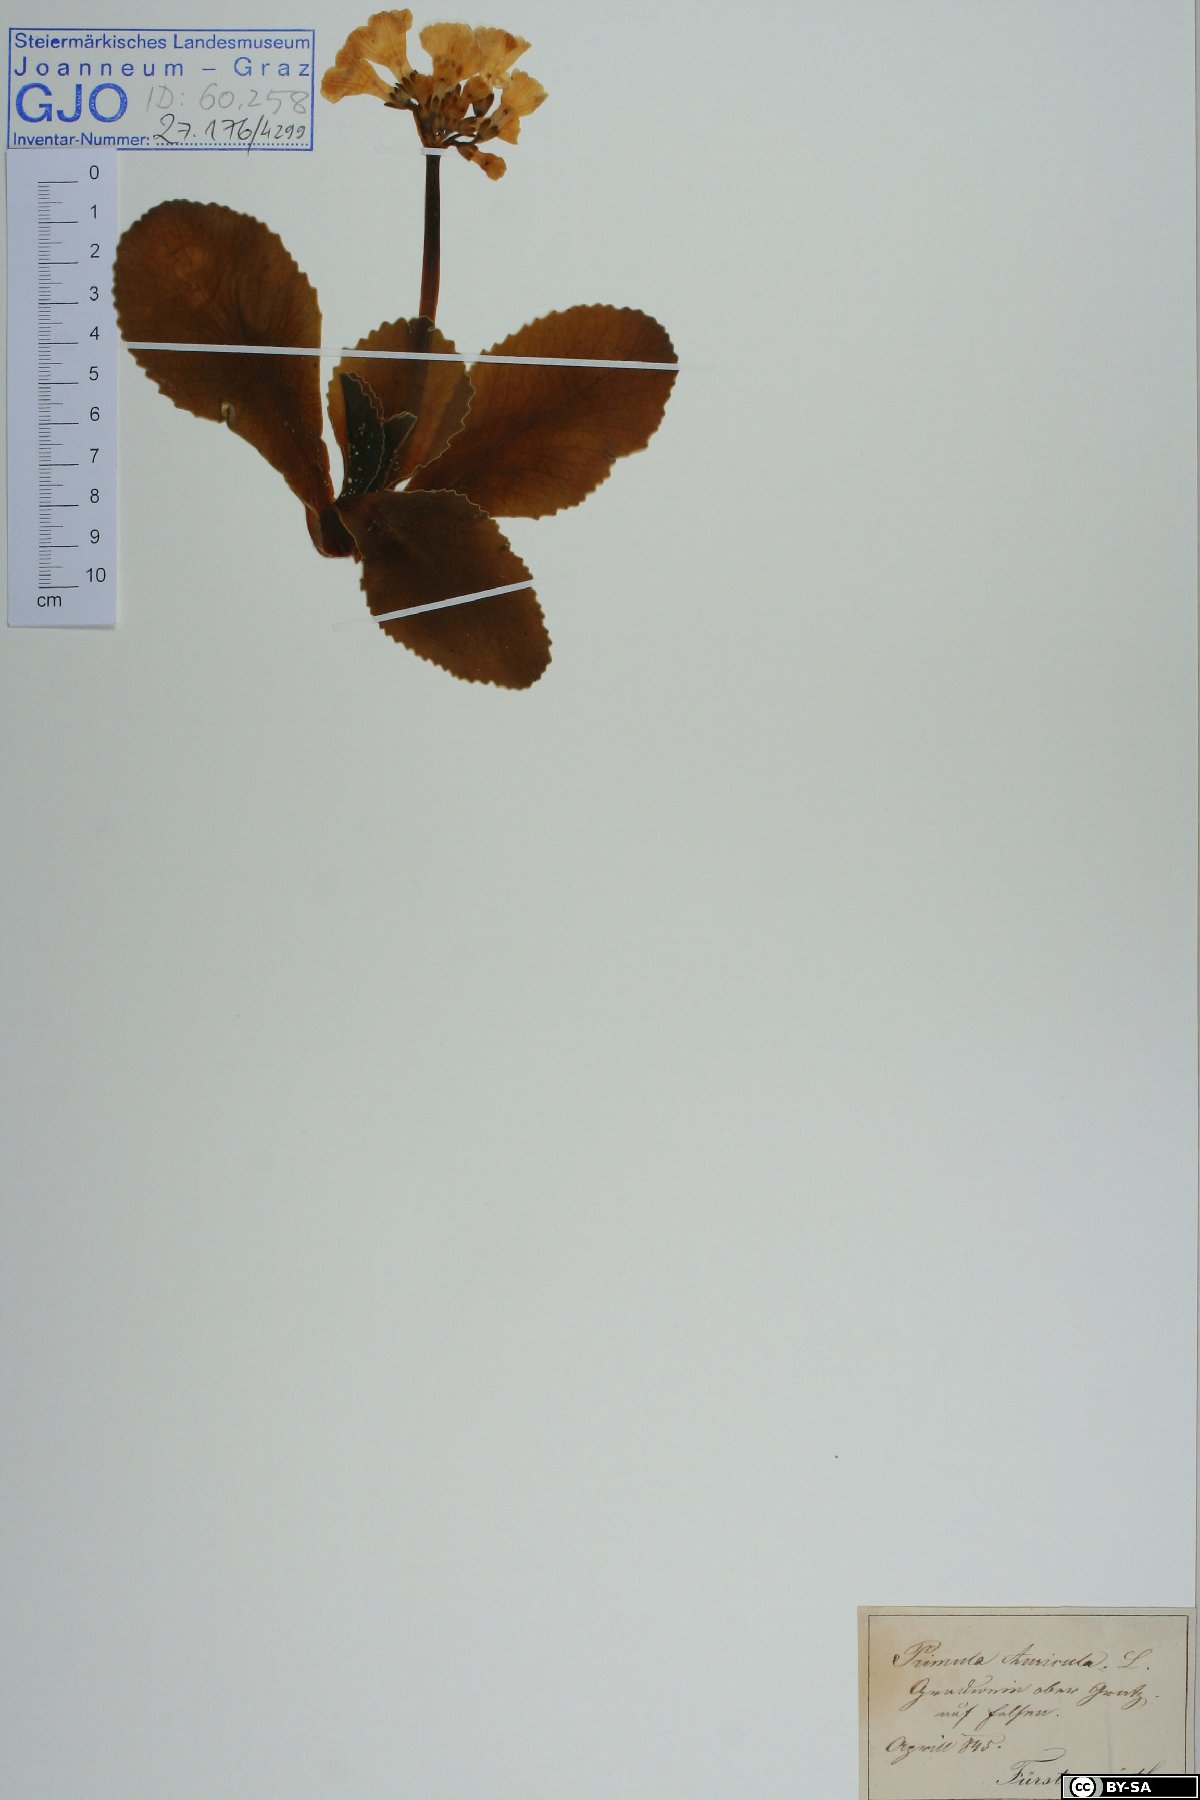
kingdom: Plantae
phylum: Tracheophyta
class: Magnoliopsida
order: Ericales
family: Primulaceae
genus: Primula
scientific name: Primula auricula
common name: Auricula
